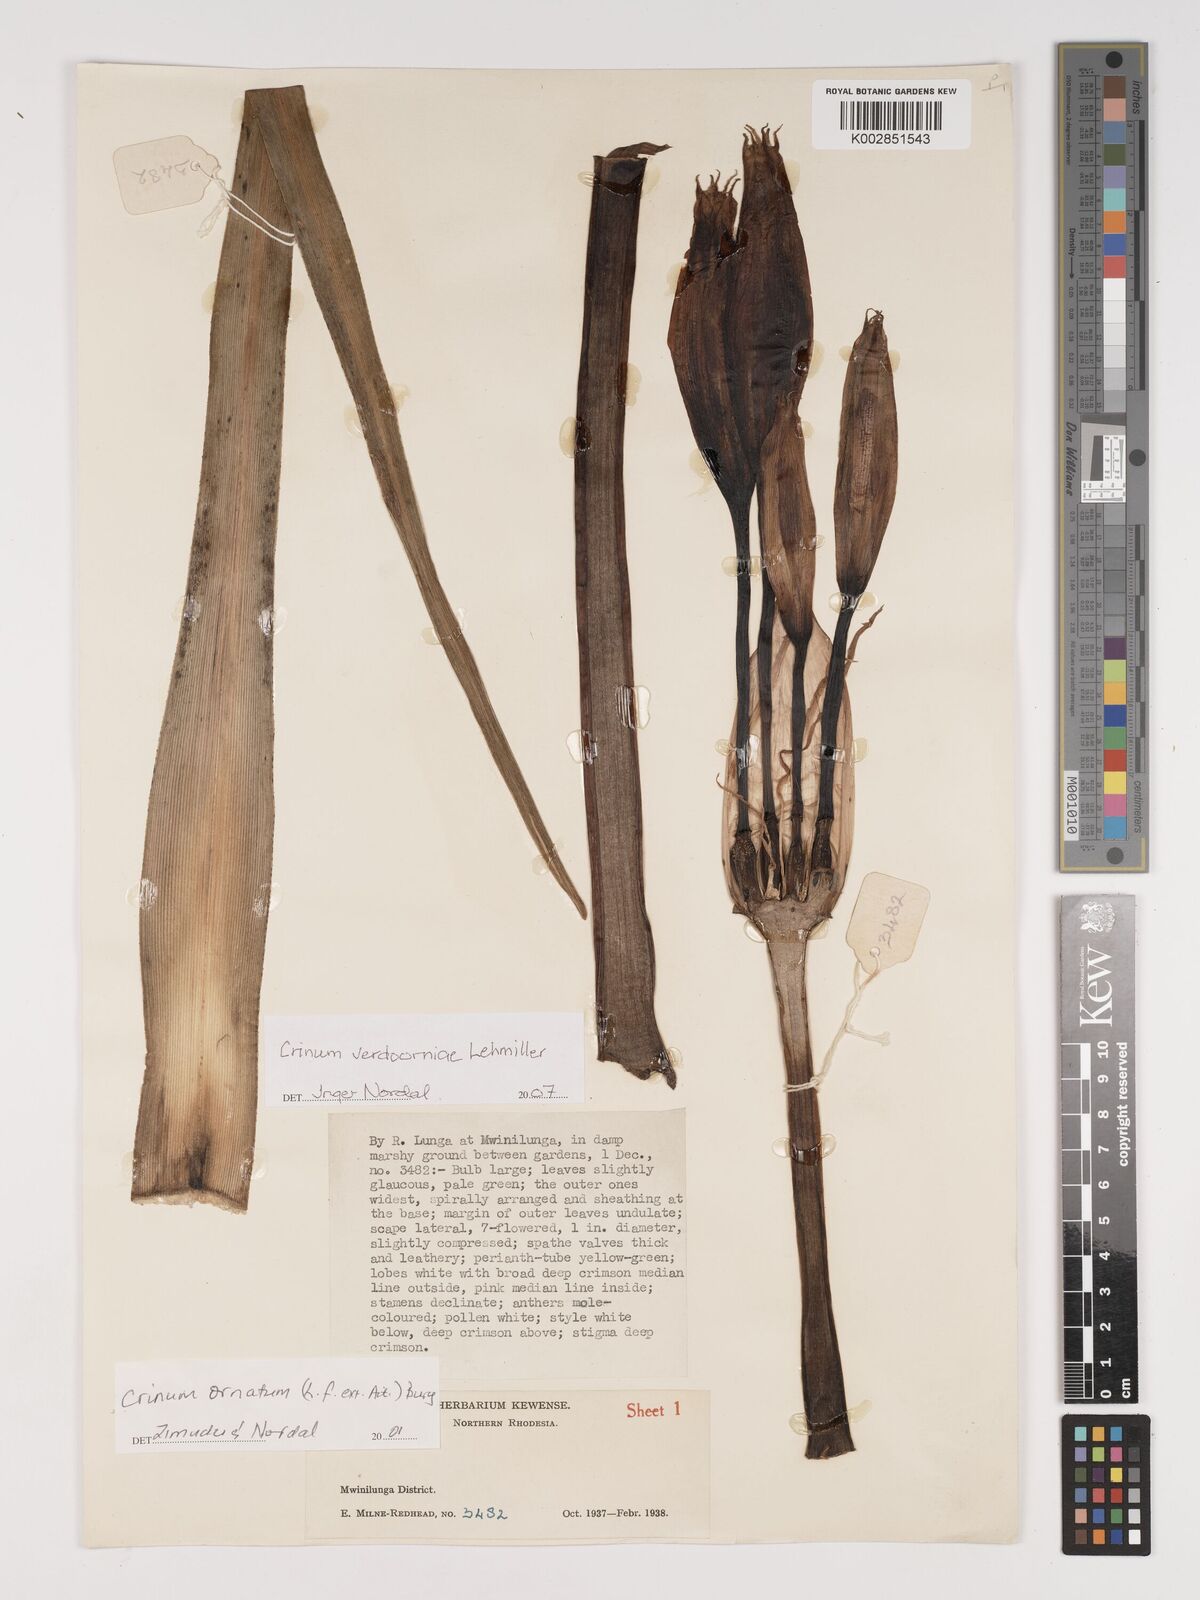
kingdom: Plantae
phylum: Tracheophyta
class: Liliopsida
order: Asparagales
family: Amaryllidaceae
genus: Crinum
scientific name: Crinum verdoorniae
